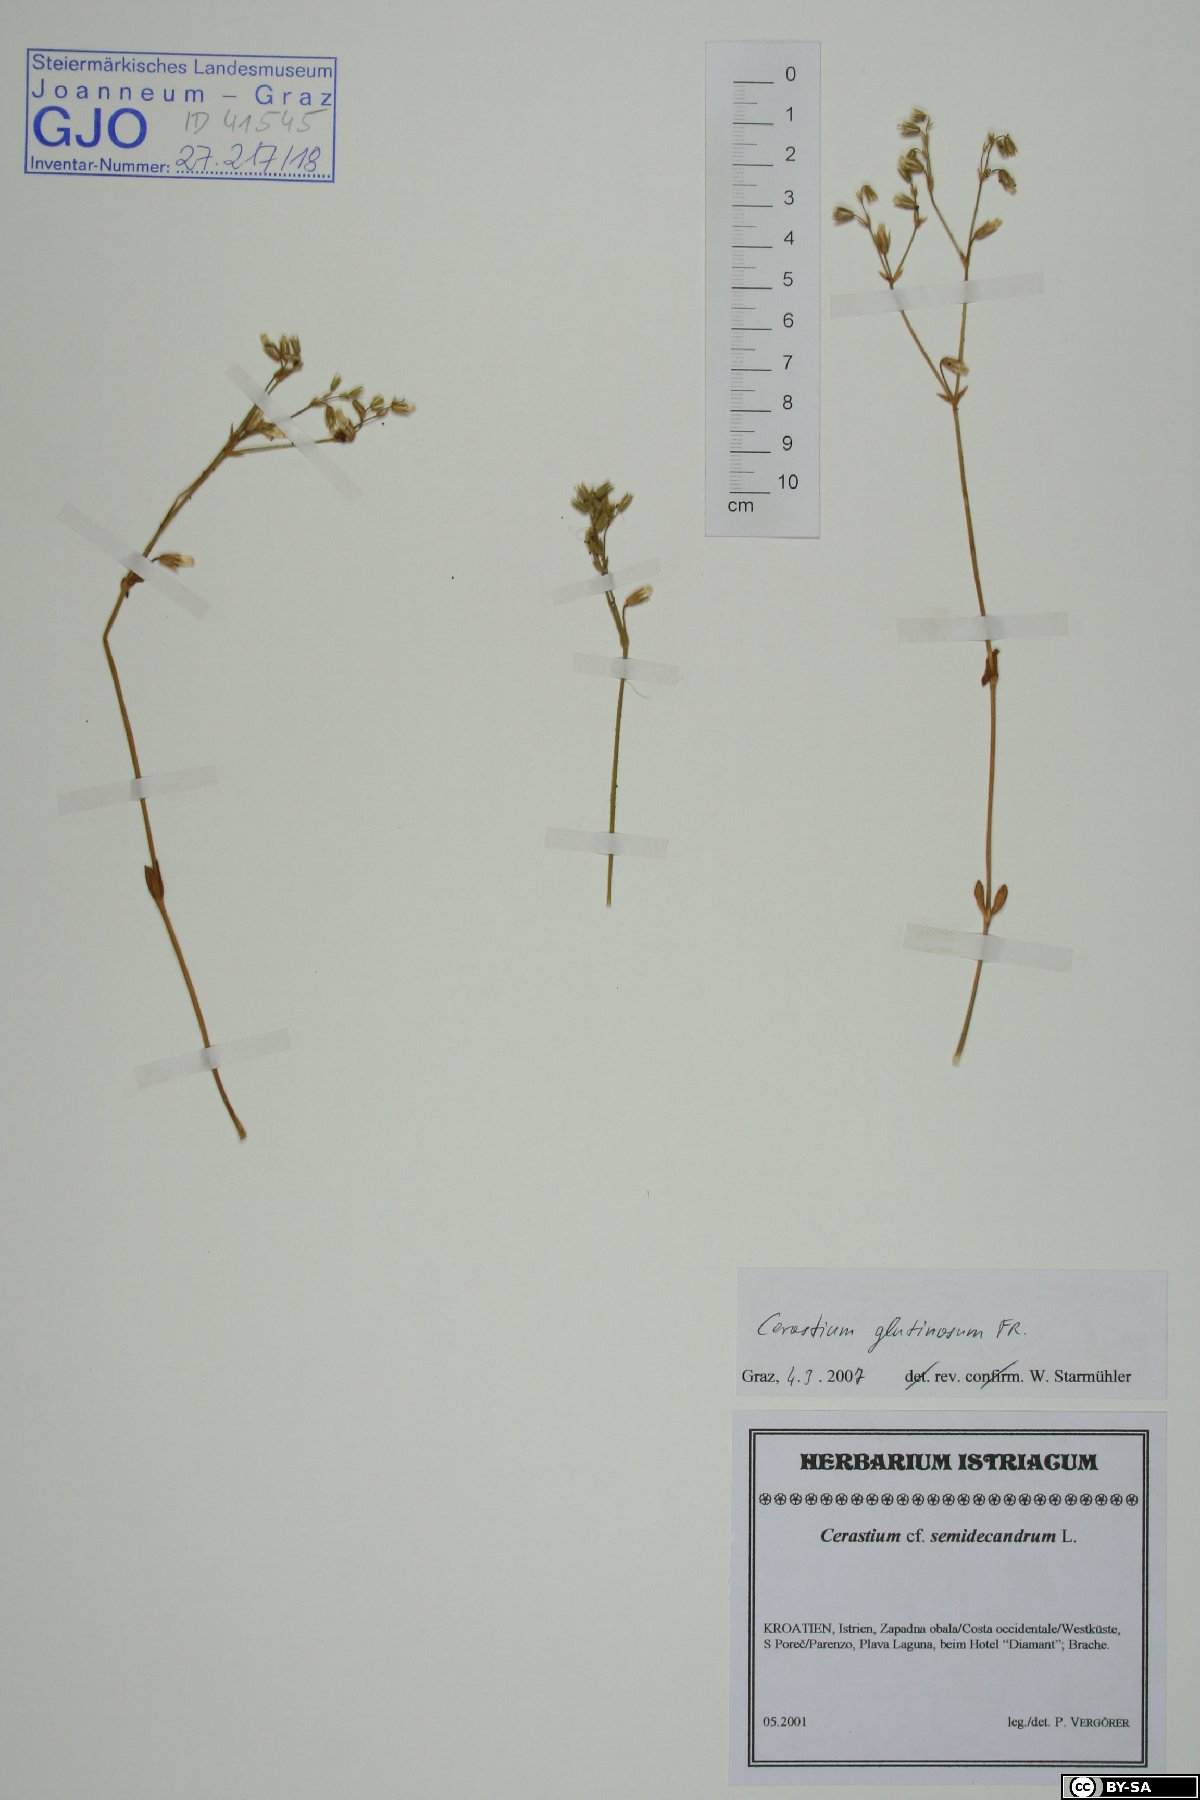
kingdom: Plantae
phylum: Tracheophyta
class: Magnoliopsida
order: Caryophyllales
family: Caryophyllaceae
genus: Cerastium
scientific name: Cerastium glutinosum
